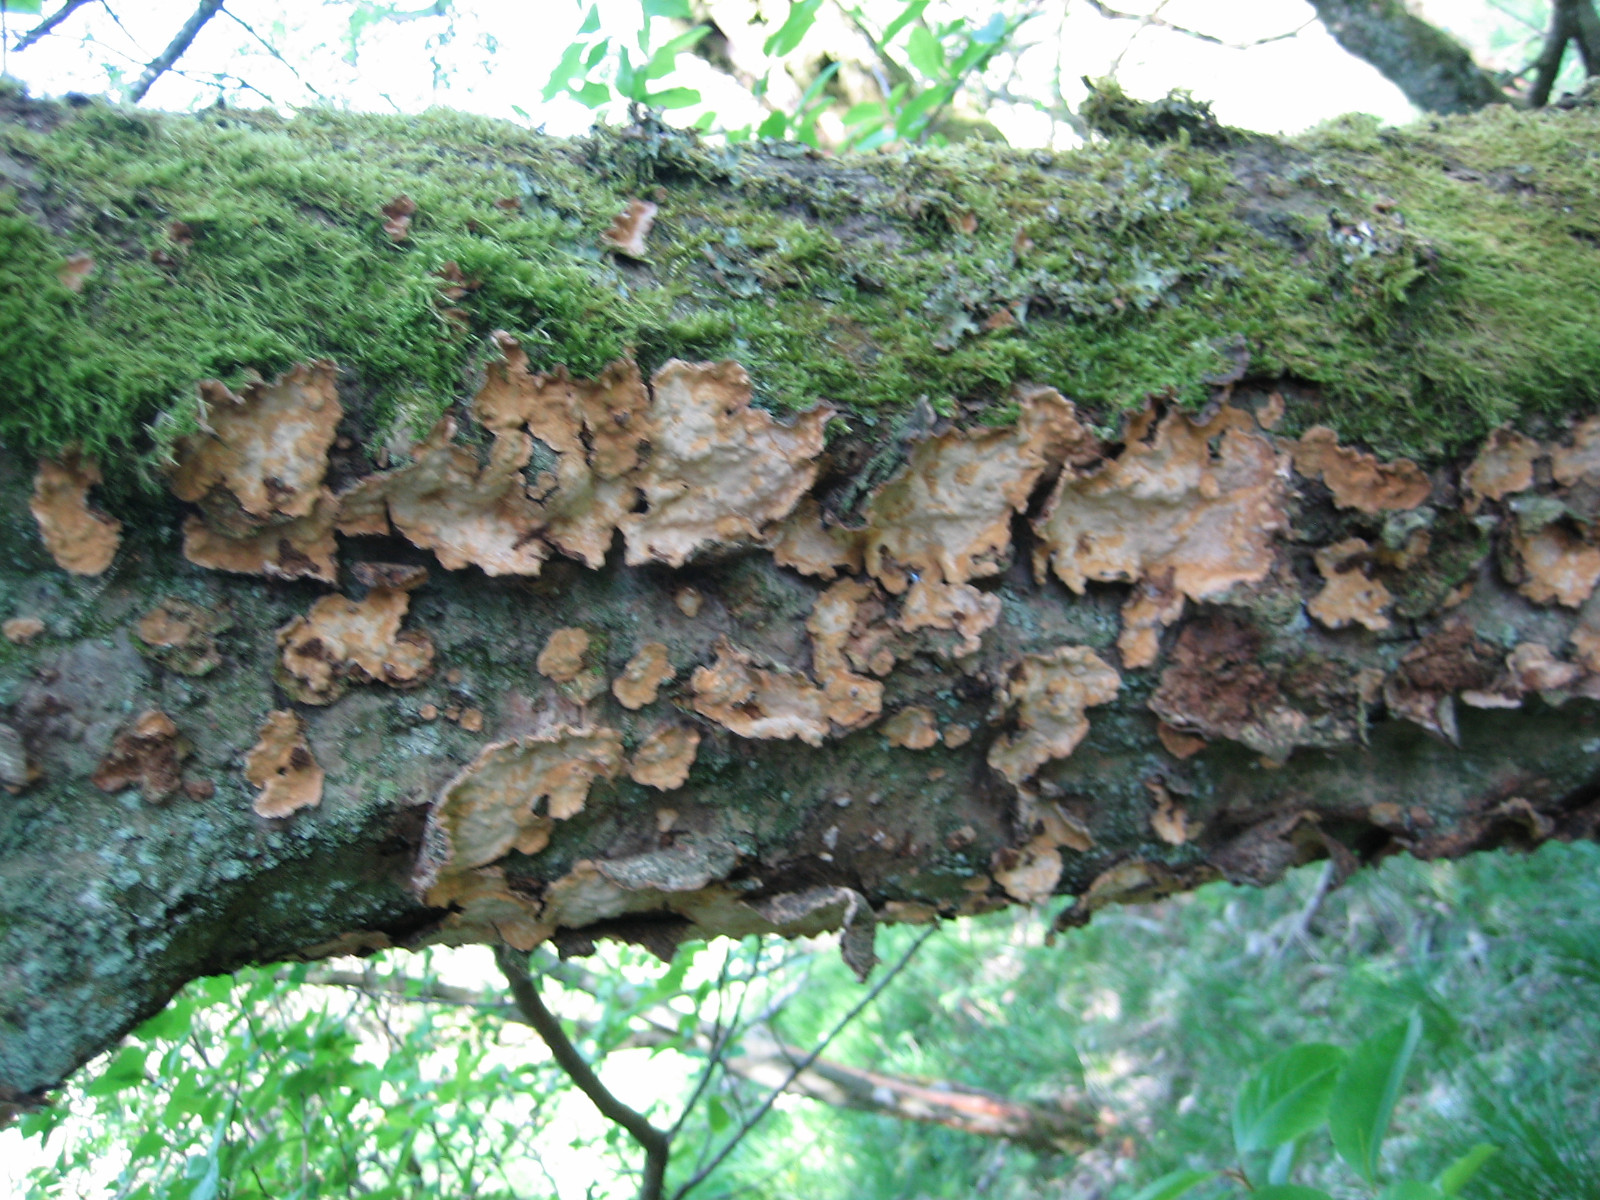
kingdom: Fungi
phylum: Basidiomycota
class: Agaricomycetes
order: Russulales
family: Stereaceae
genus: Stereum
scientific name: Stereum rugosum
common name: rynket lædersvamp
